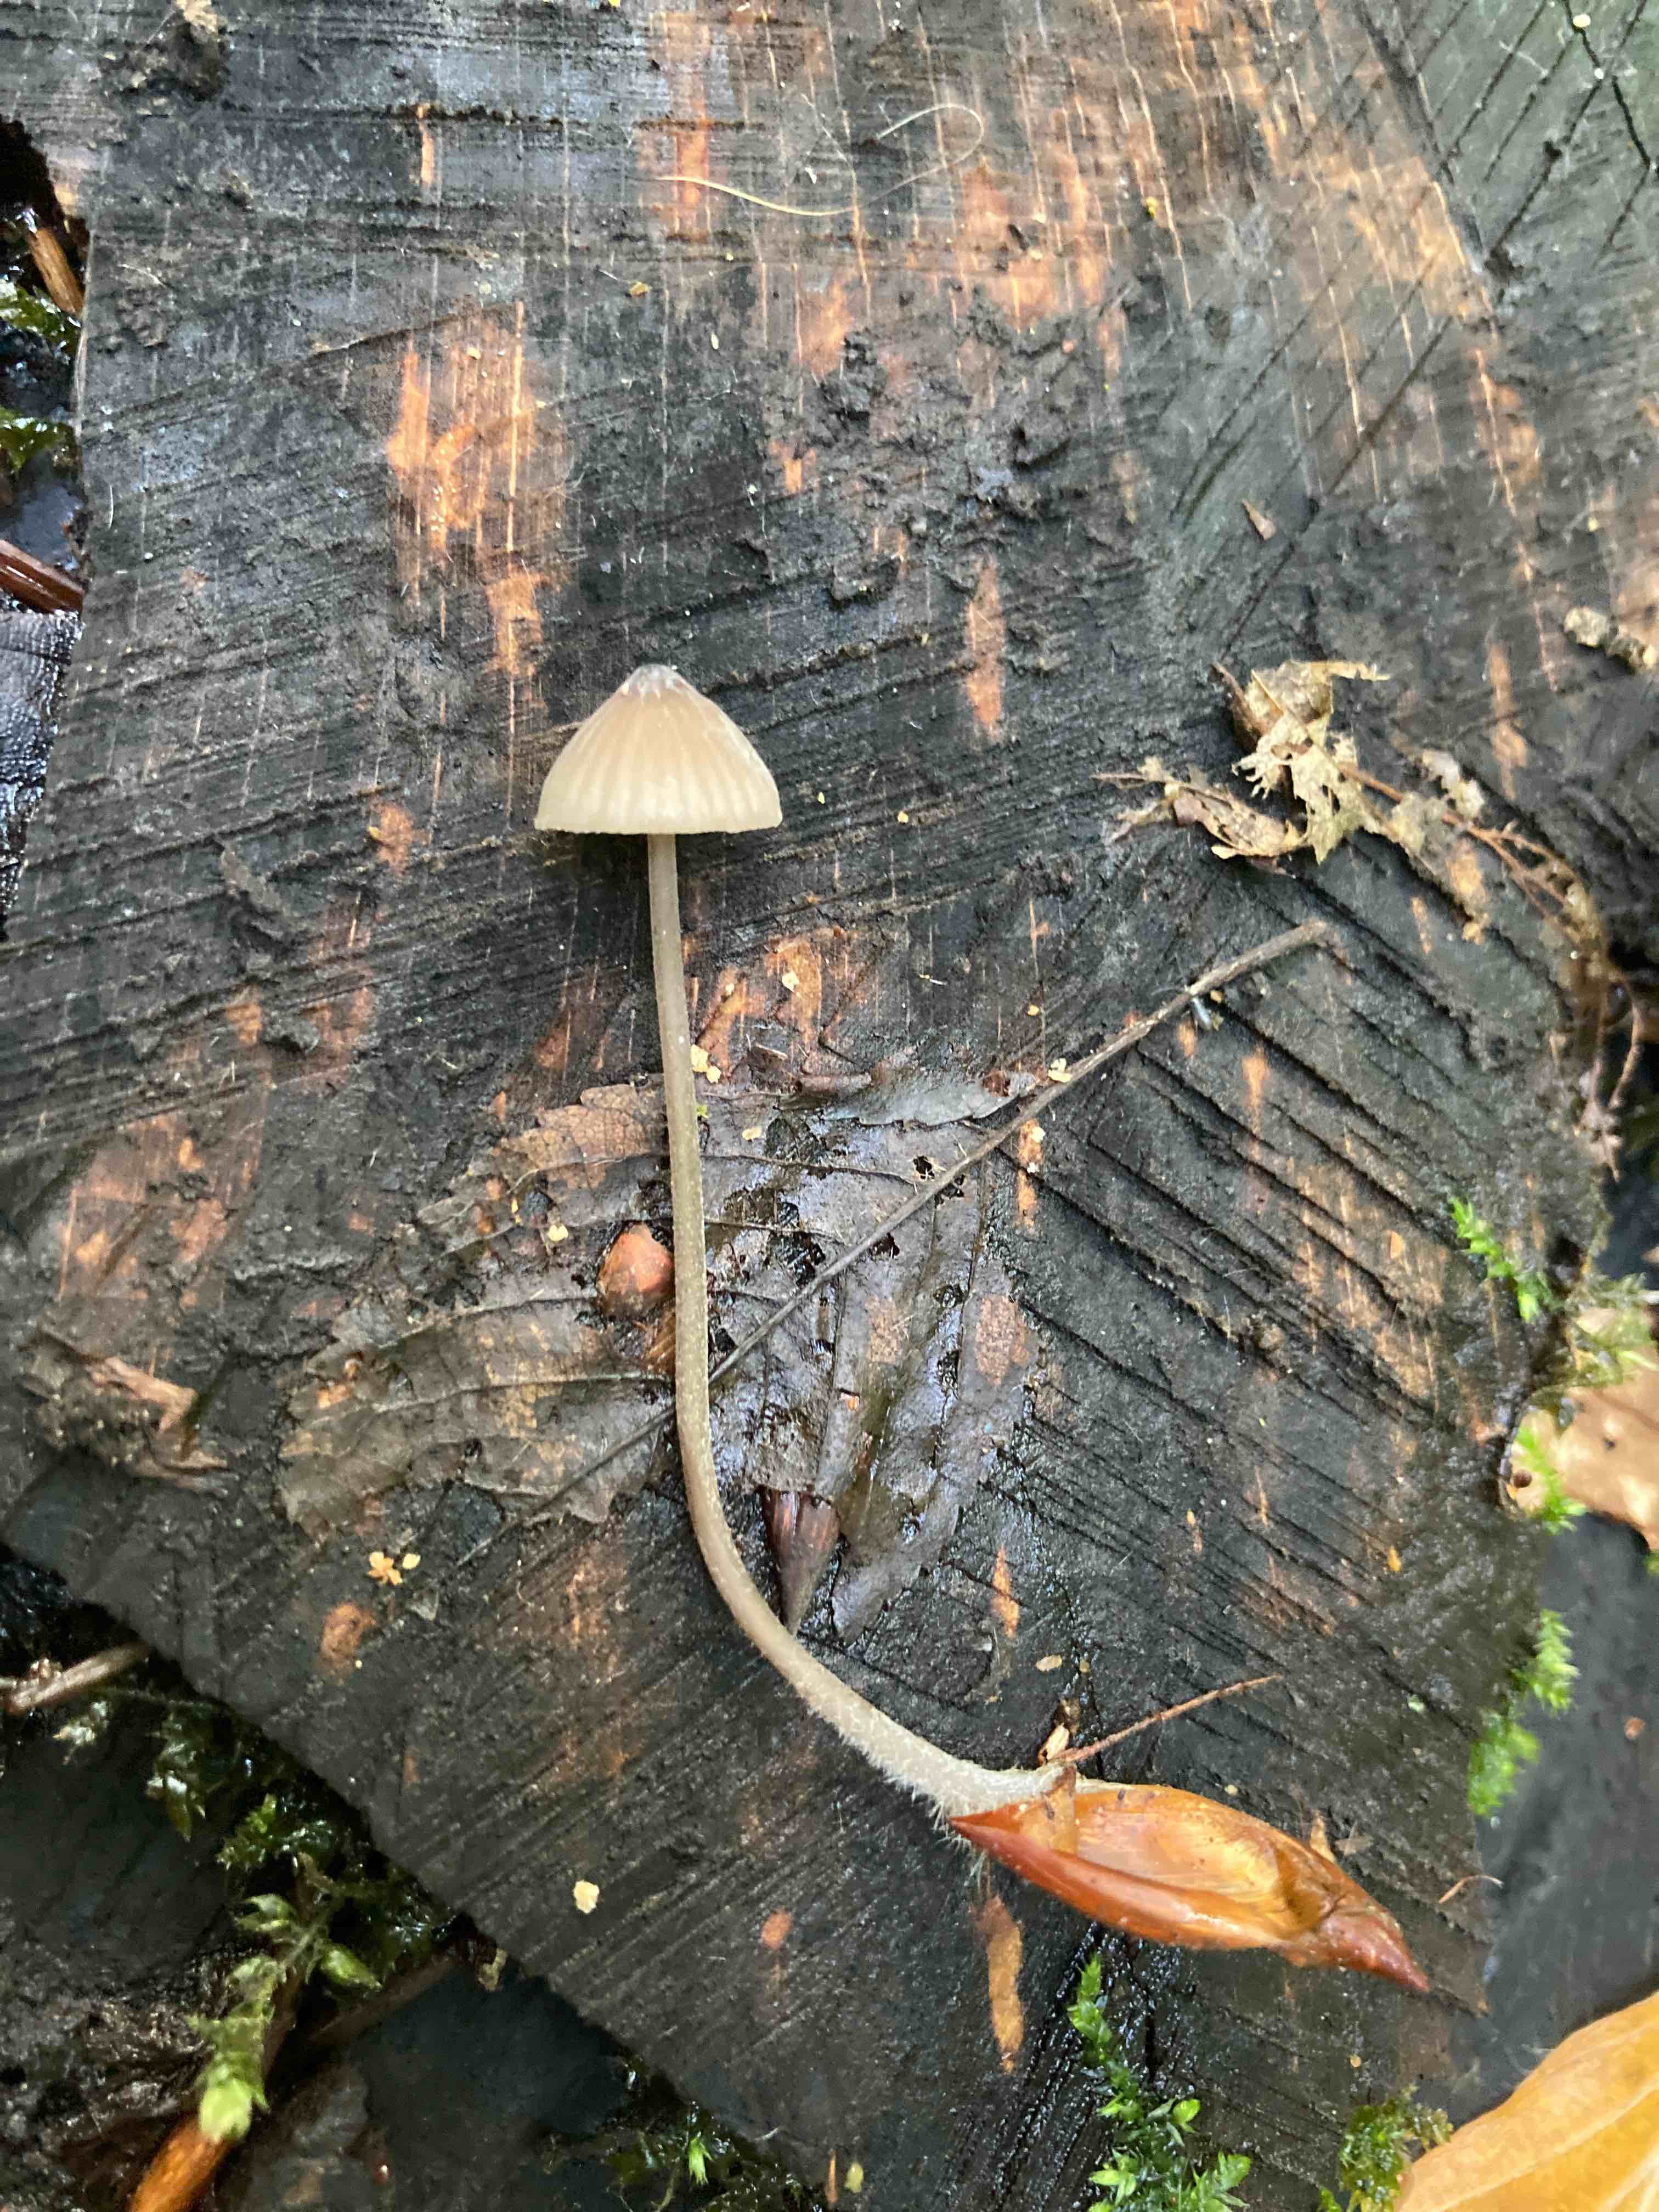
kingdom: Fungi
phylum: Basidiomycota
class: Agaricomycetes
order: Agaricales
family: Mycenaceae
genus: Mycena
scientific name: Mycena erubescens
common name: galde-huesvamp
